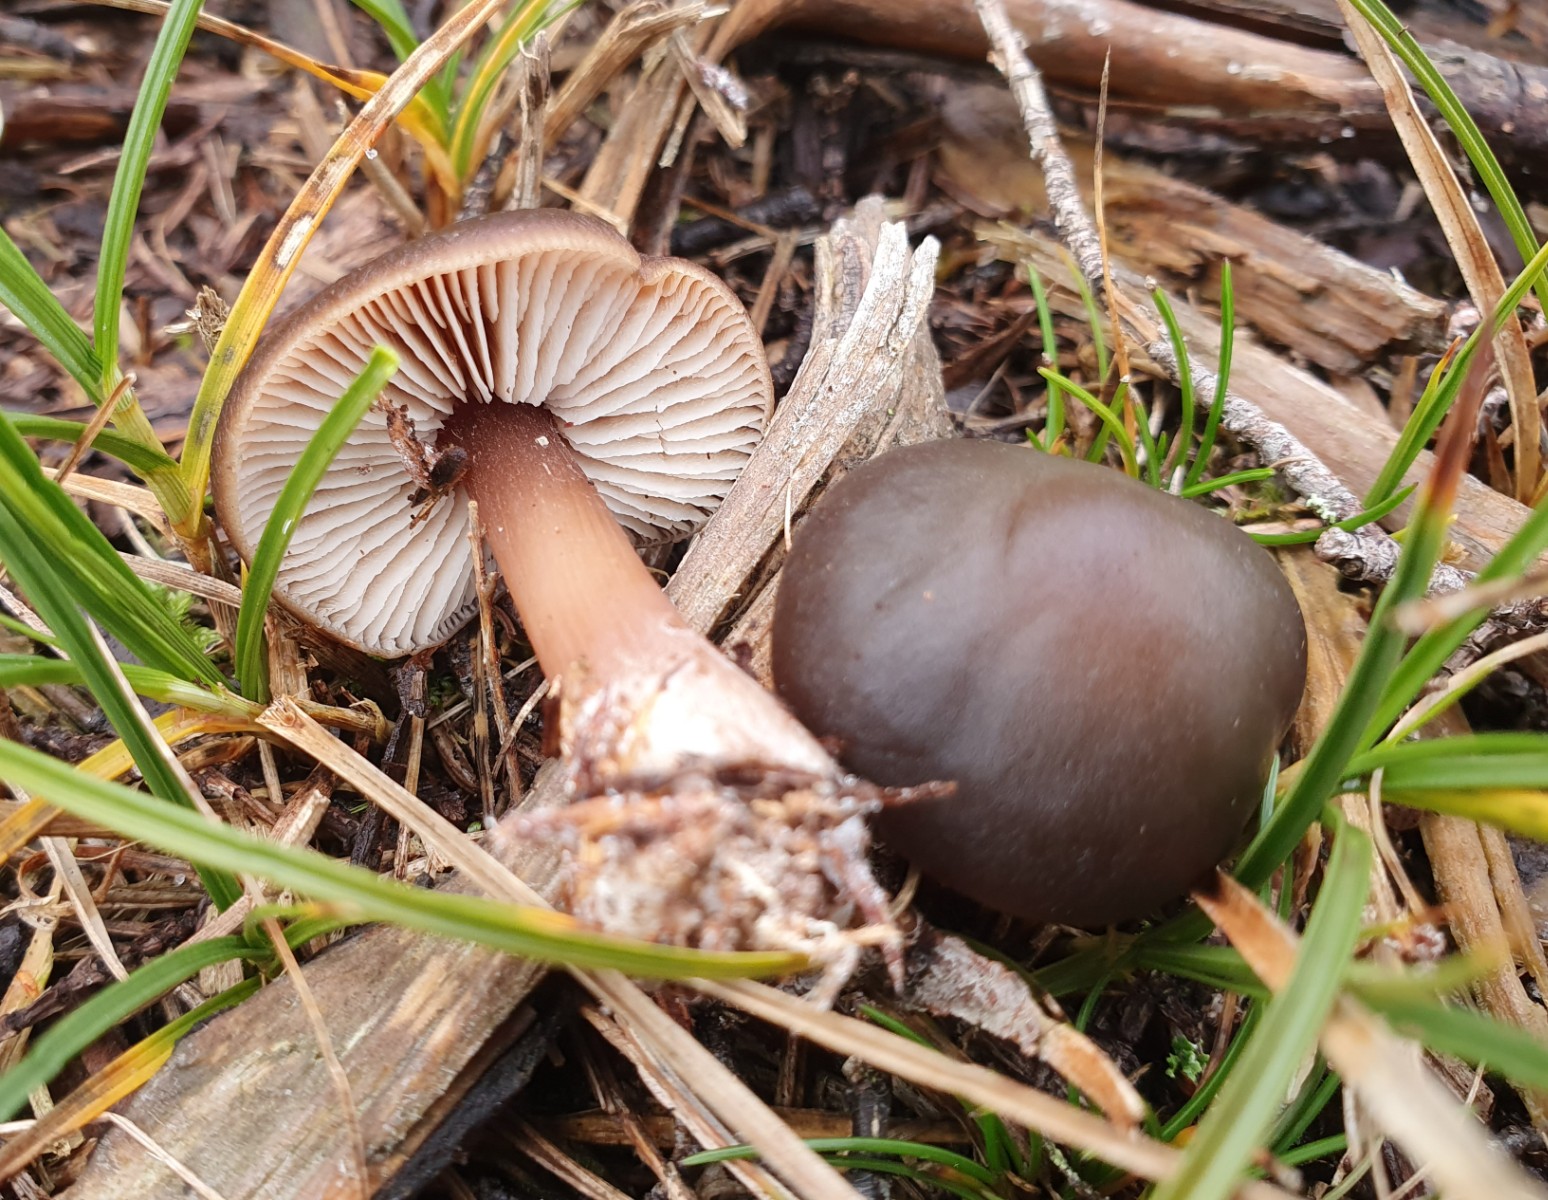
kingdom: Fungi
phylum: Basidiomycota
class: Agaricomycetes
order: Agaricales
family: Omphalotaceae
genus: Rhodocollybia
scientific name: Rhodocollybia
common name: fladhat
